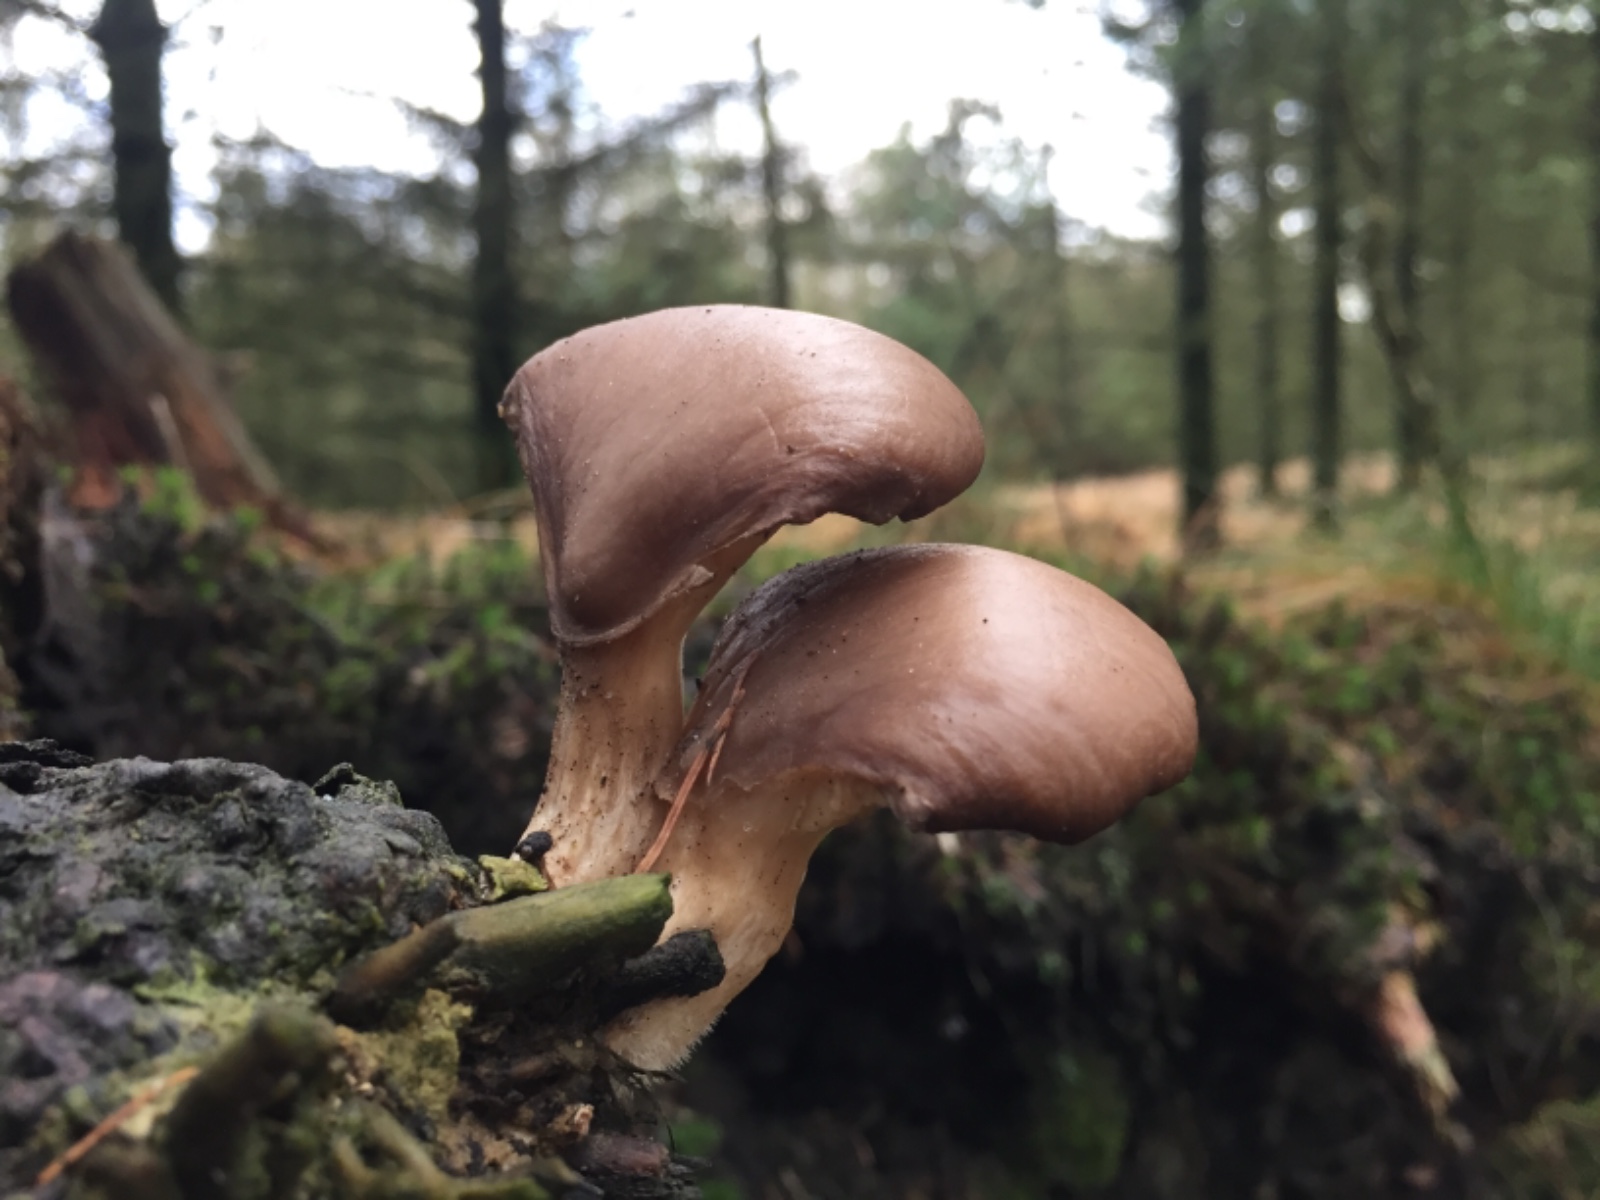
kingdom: Fungi
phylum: Basidiomycota
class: Agaricomycetes
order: Agaricales
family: Pleurotaceae
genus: Pleurotus
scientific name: Pleurotus ostreatus
